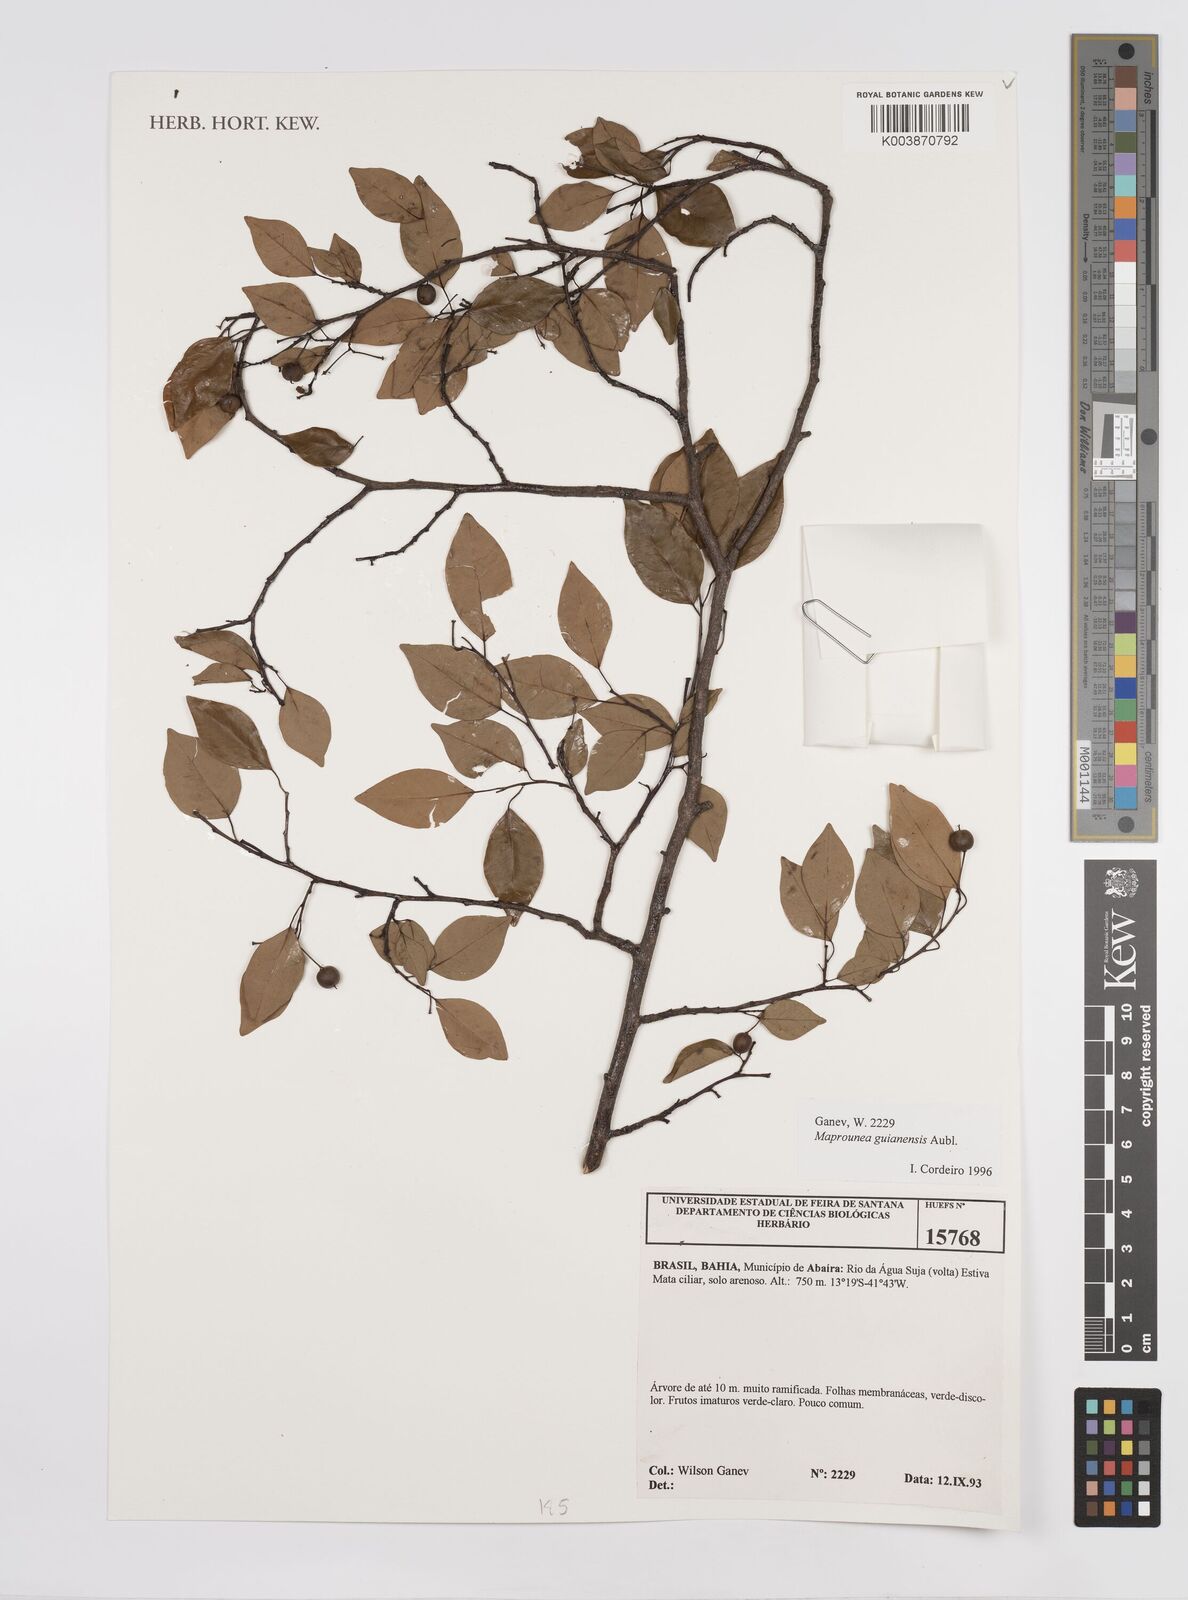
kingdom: Plantae
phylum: Tracheophyta
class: Magnoliopsida
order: Malpighiales
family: Euphorbiaceae
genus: Maprounea
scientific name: Maprounea guianensis
